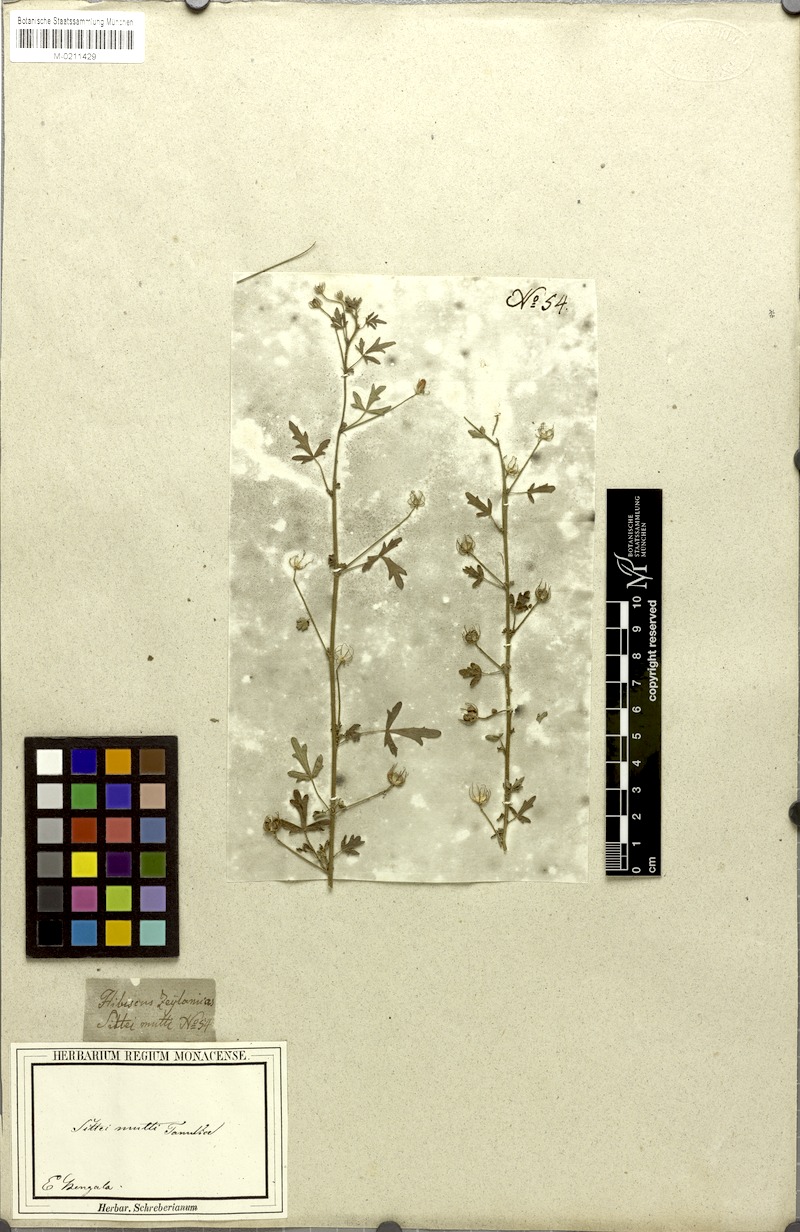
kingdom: Plantae
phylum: Tracheophyta
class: Magnoliopsida
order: Malvales
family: Malvaceae
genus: Pavonia
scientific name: Pavonia zeylanica
